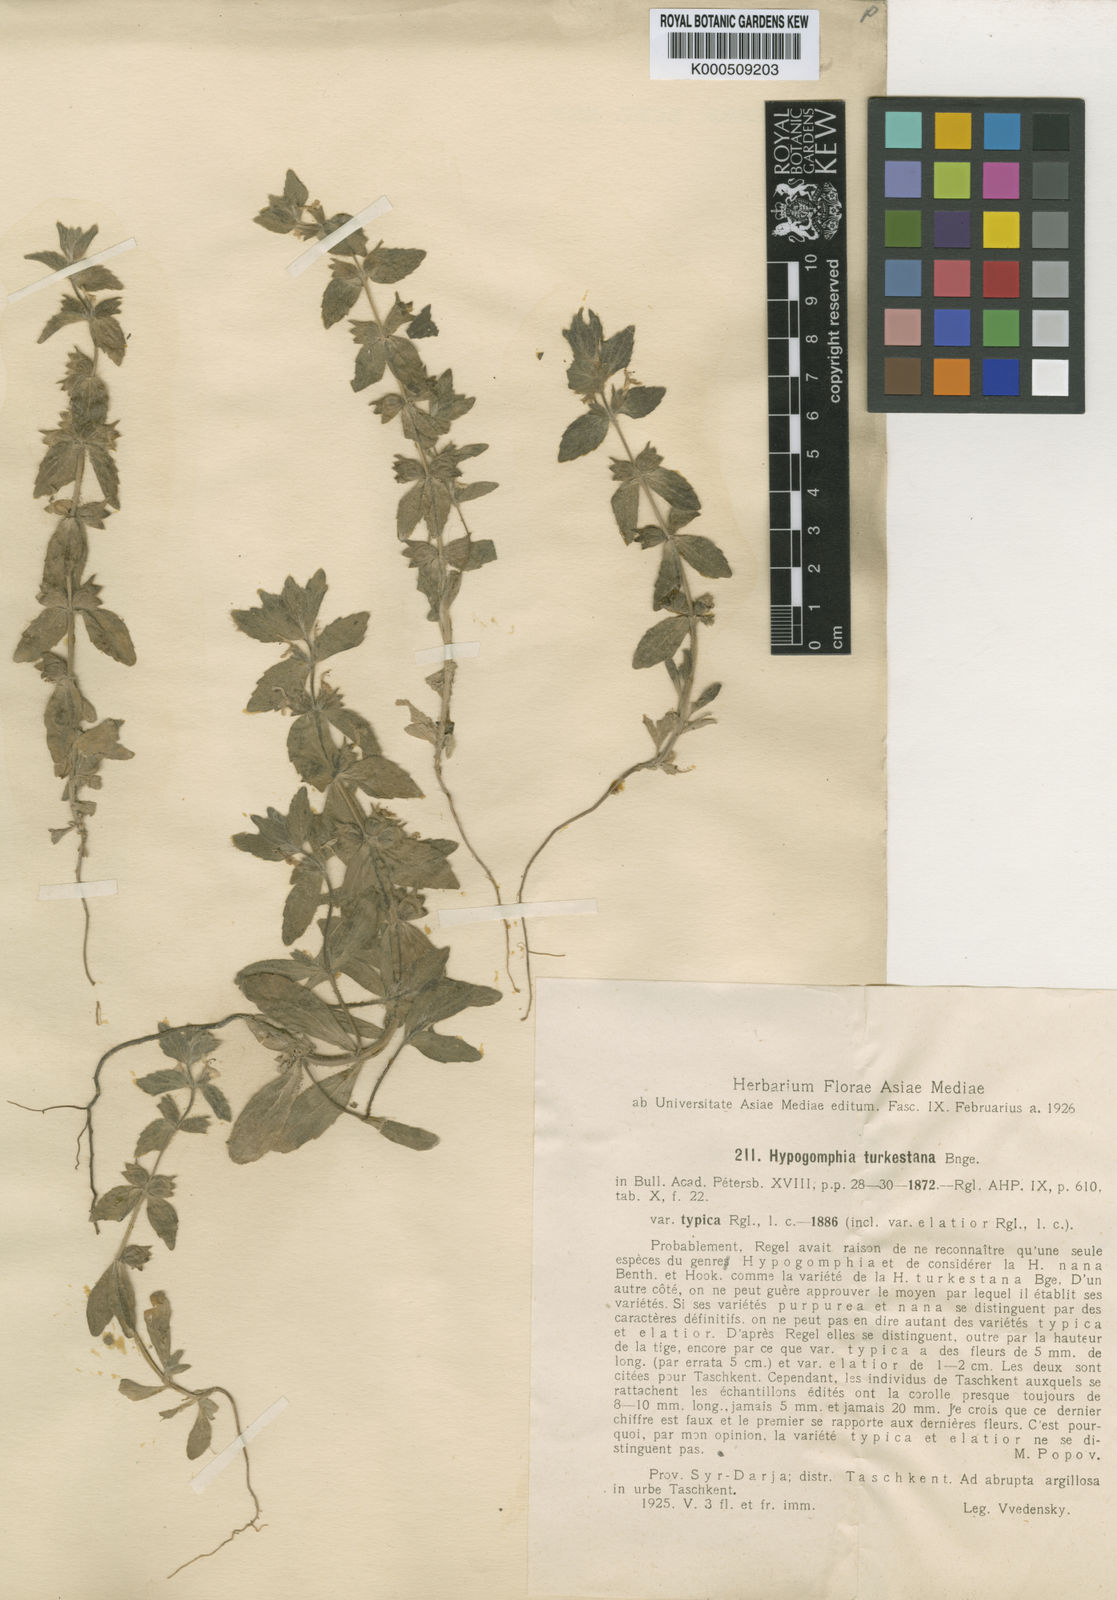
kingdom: Plantae
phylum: Tracheophyta
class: Magnoliopsida
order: Lamiales
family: Lamiaceae
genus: Hypogomphia
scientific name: Hypogomphia turkestana
